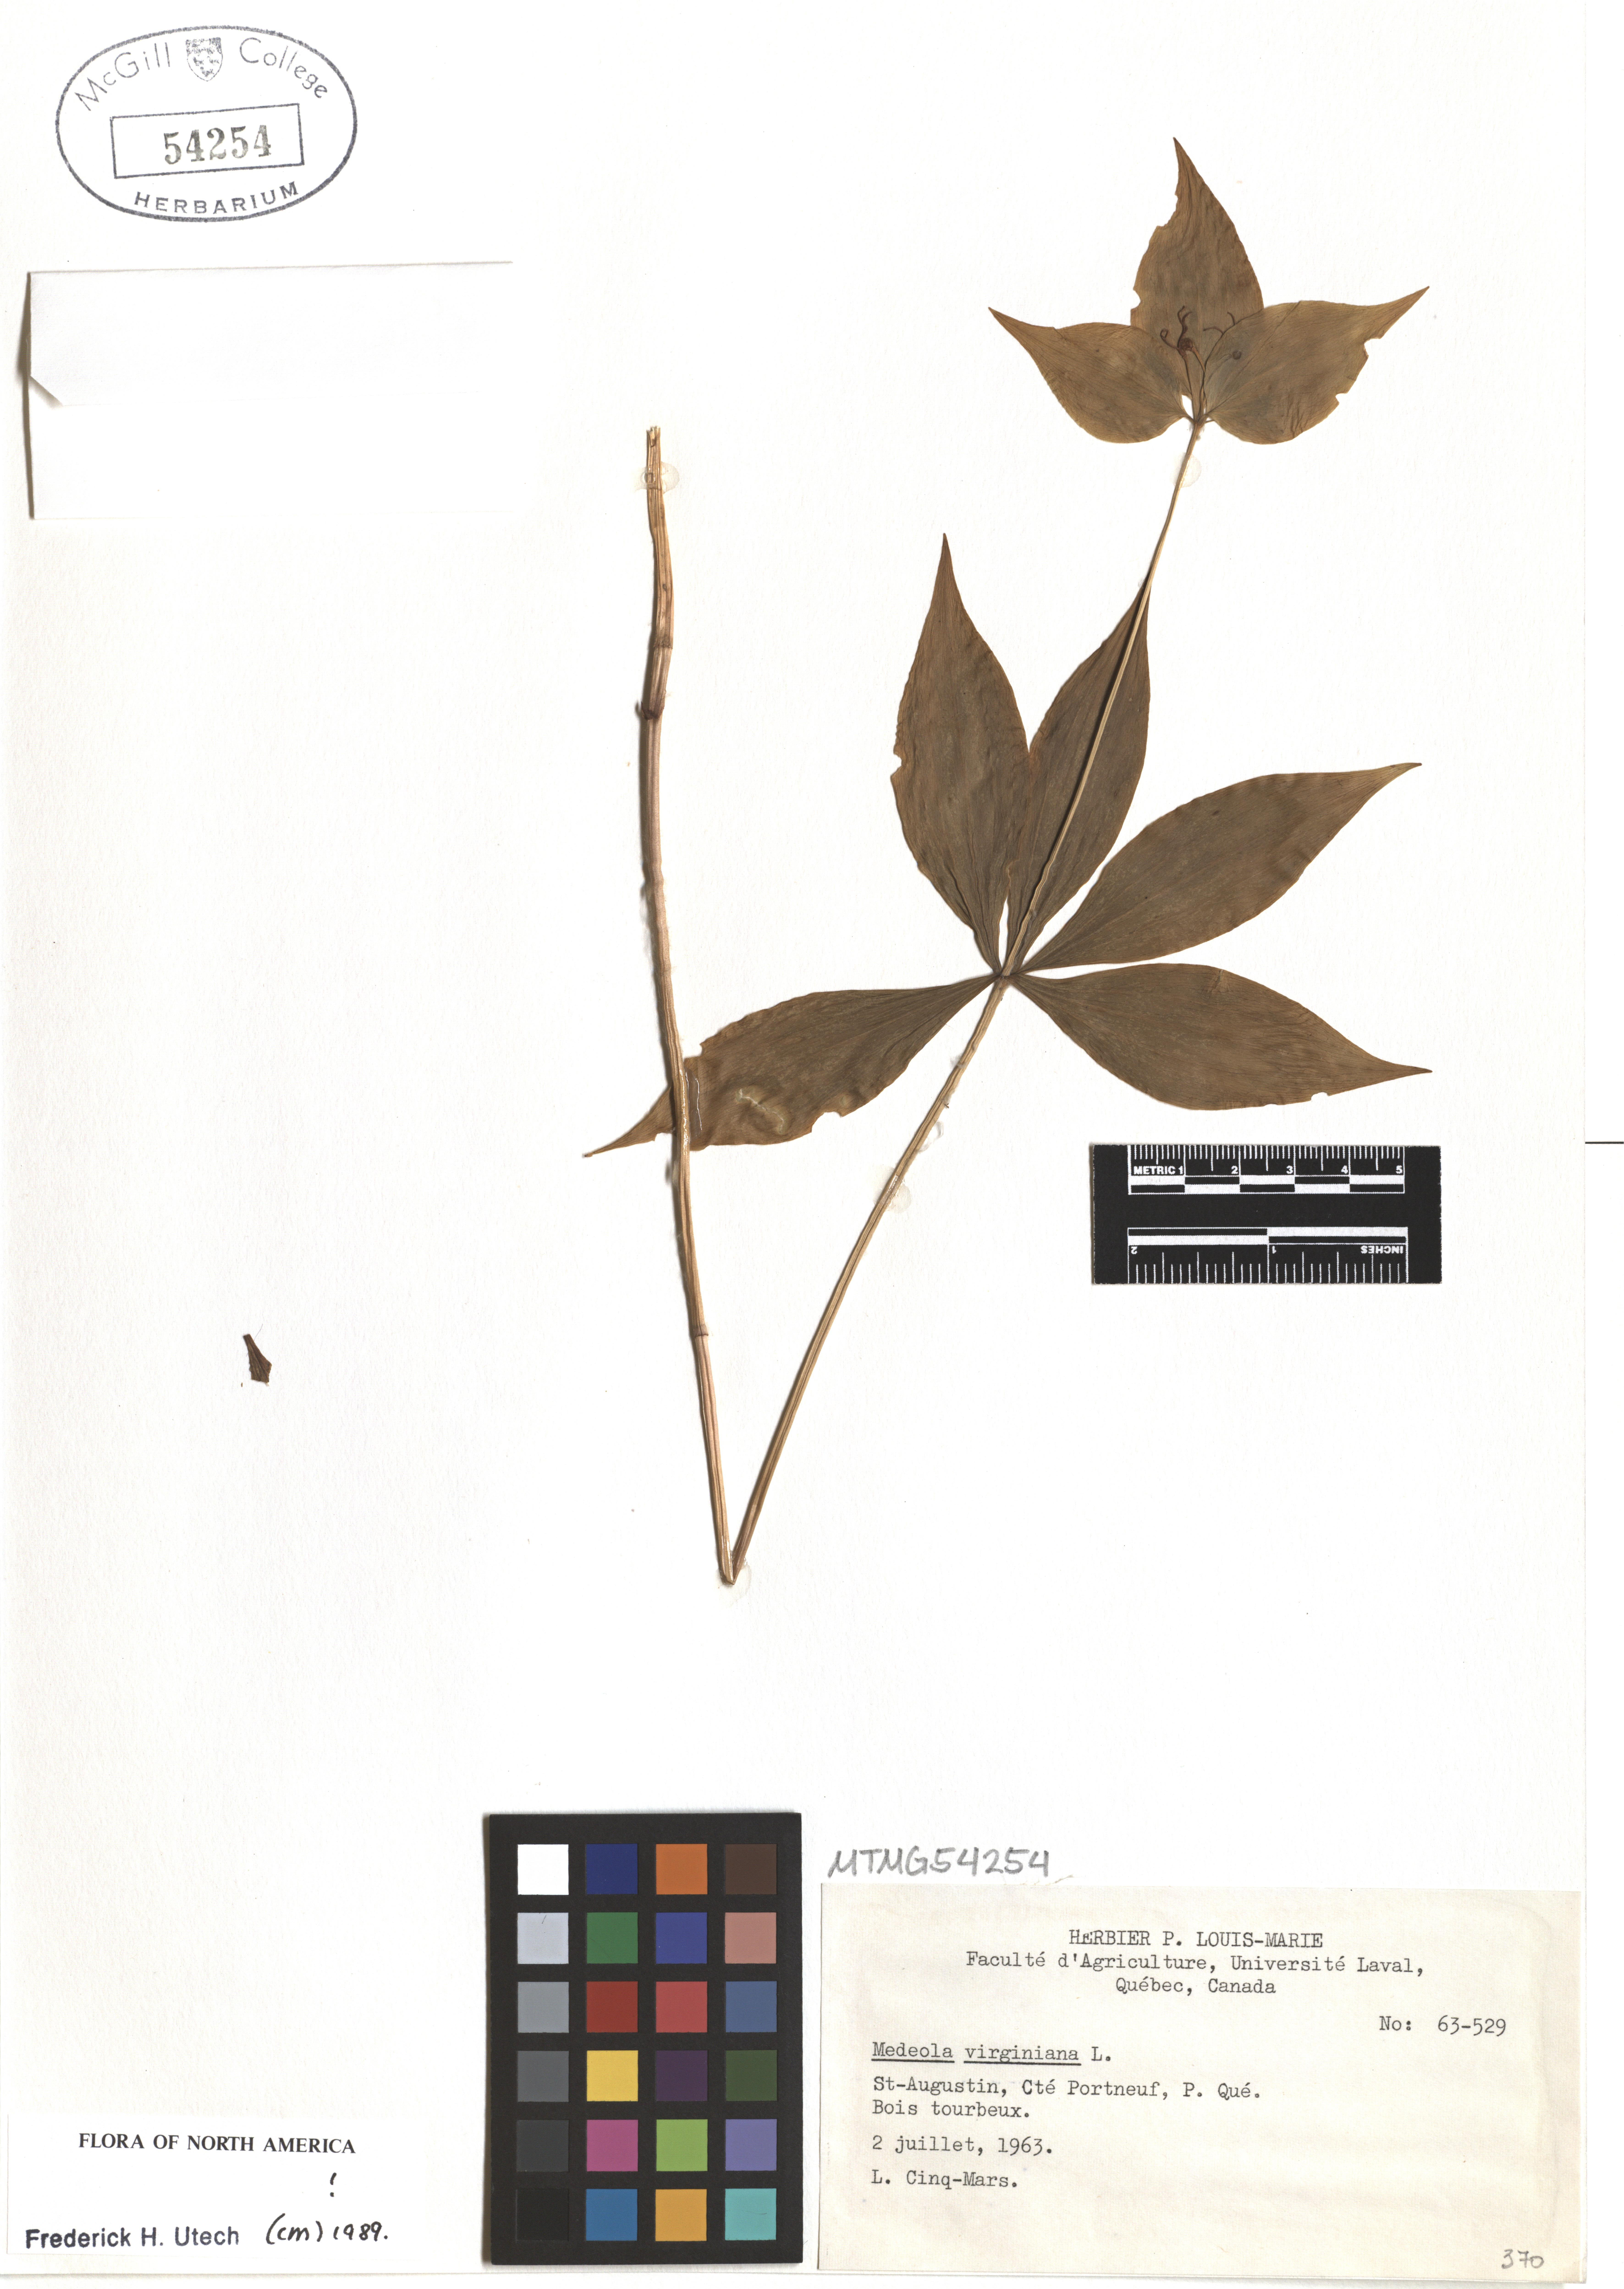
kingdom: Plantae
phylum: Tracheophyta
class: Liliopsida
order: Liliales
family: Liliaceae
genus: Medeola
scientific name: Medeola virginiana
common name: Indian cucumber-root
